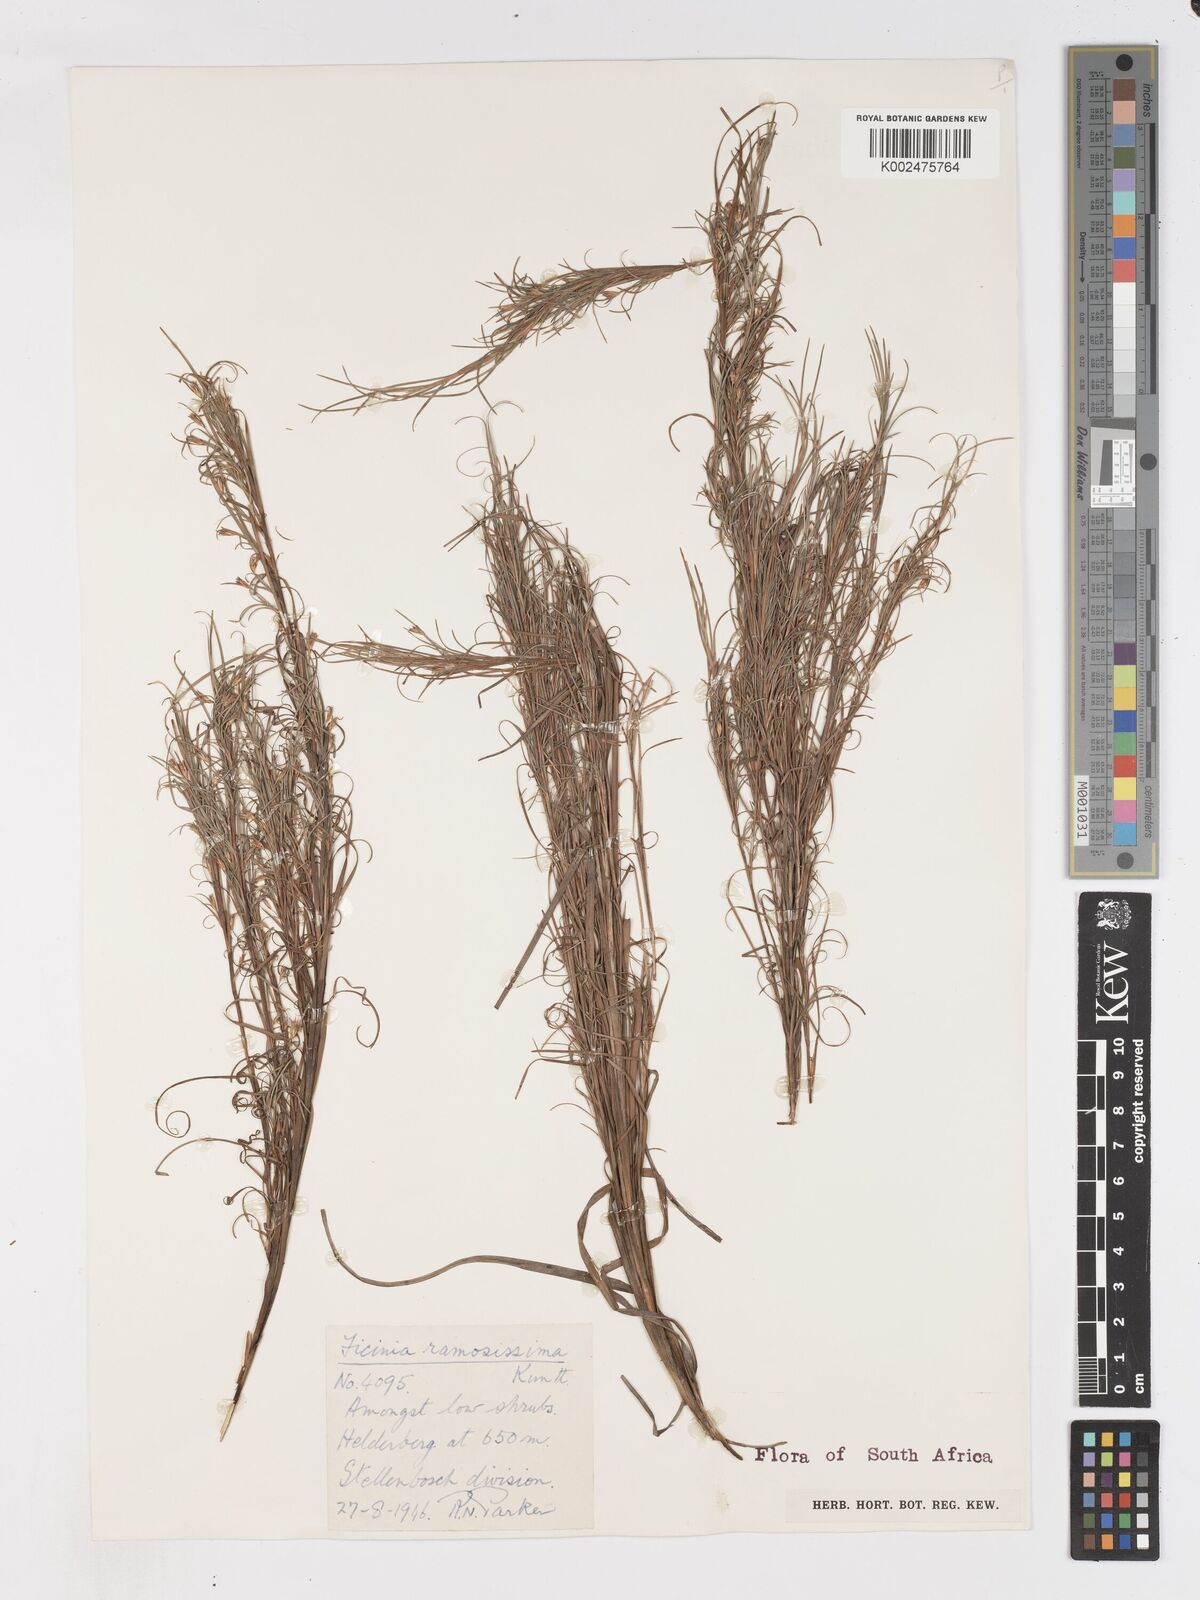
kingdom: Plantae
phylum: Tracheophyta
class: Liliopsida
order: Poales
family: Cyperaceae
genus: Ficinia
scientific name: Ficinia ramosissima
